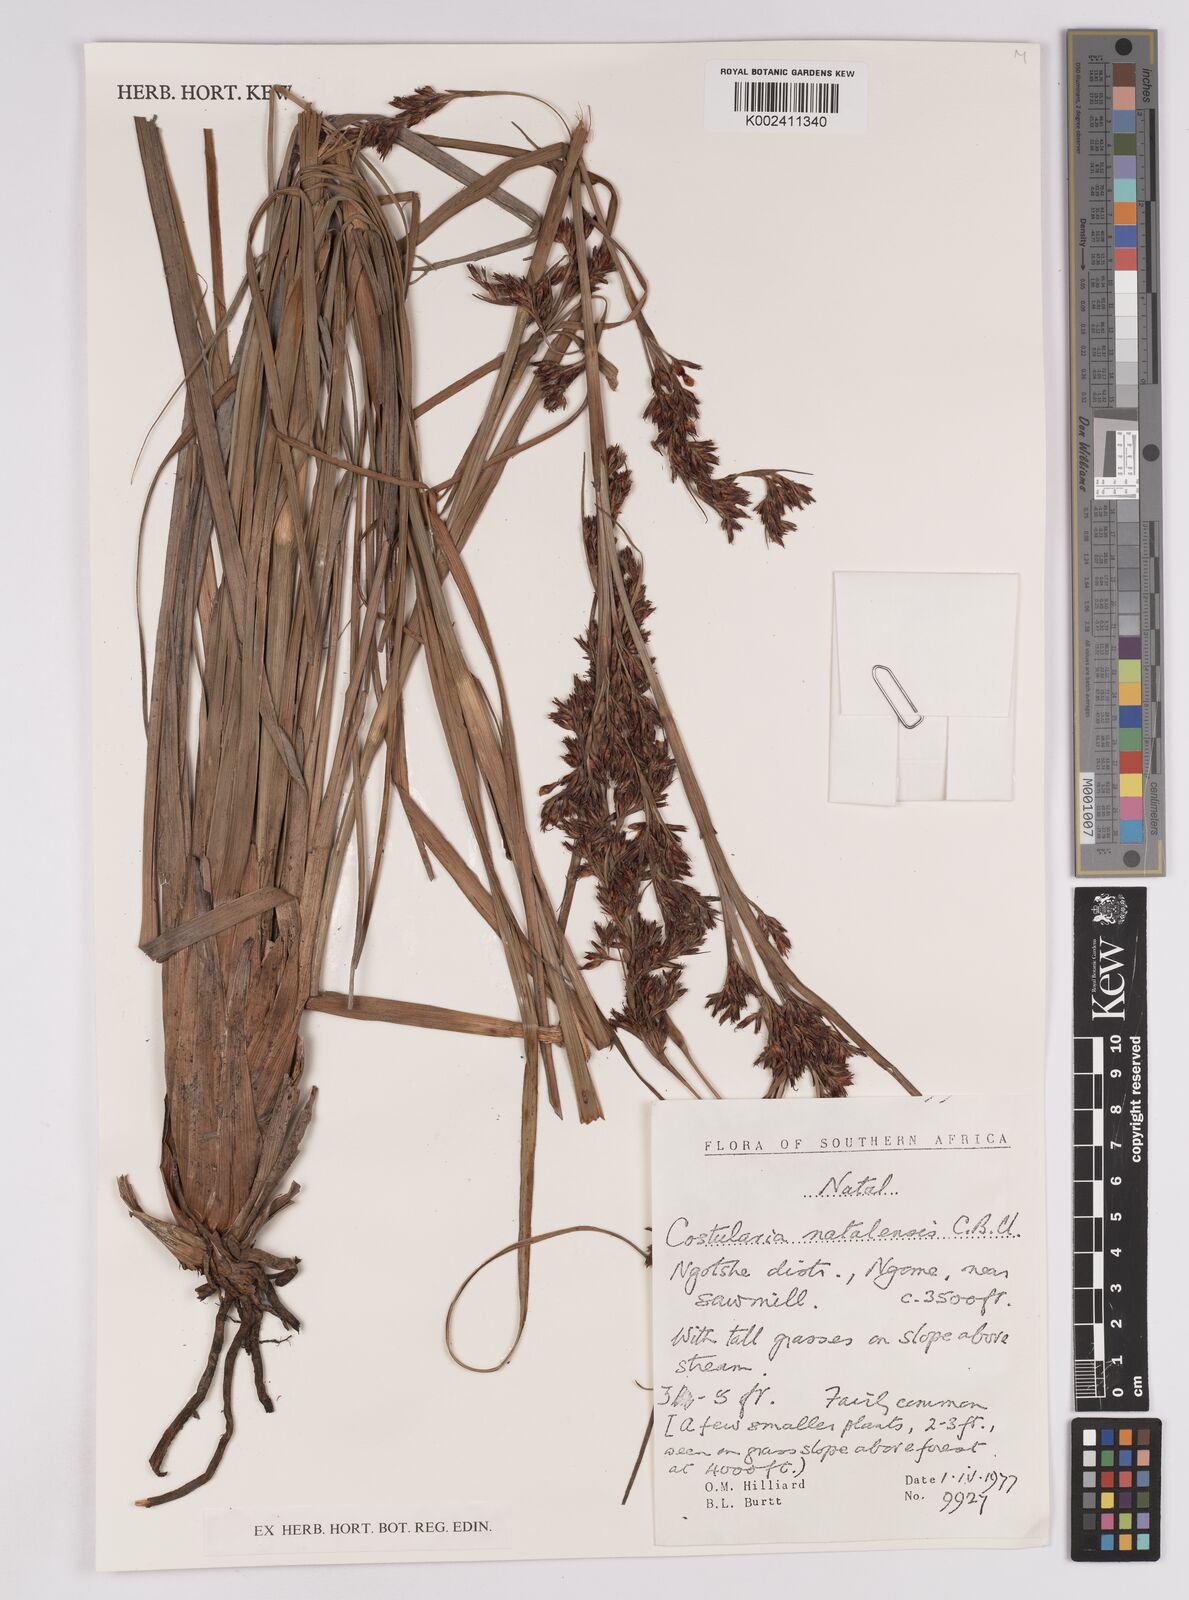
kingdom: Plantae
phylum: Tracheophyta
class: Liliopsida
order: Poales
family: Cyperaceae
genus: Costularia
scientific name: Costularia natalensis
